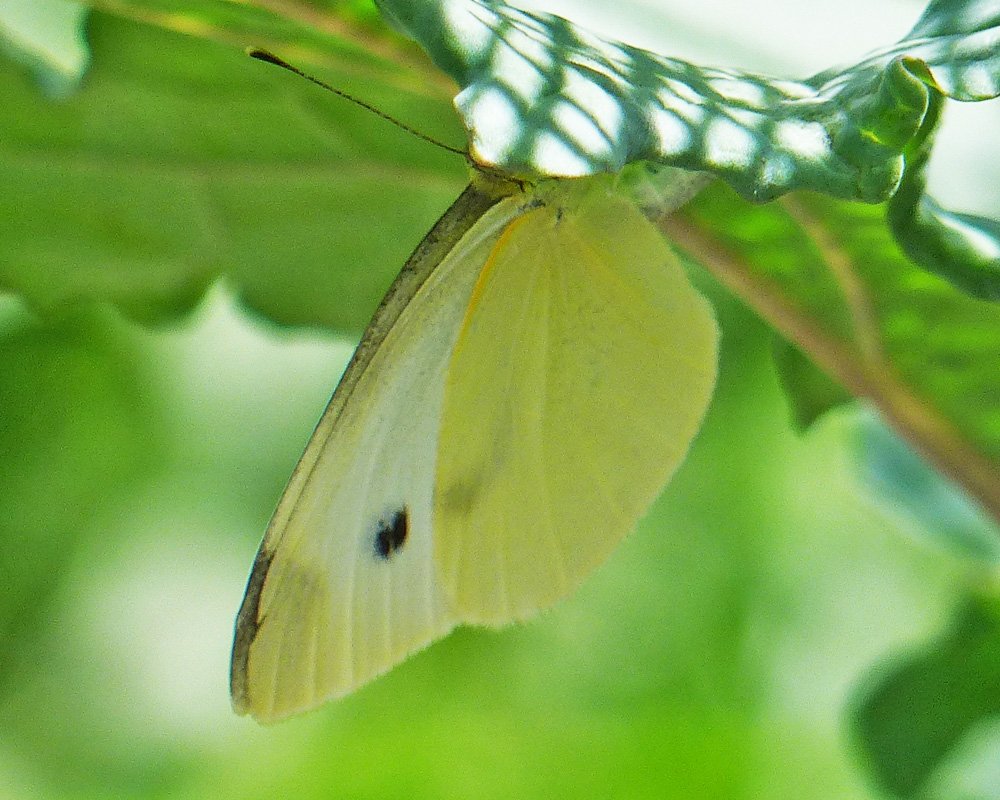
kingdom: Animalia
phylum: Arthropoda
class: Insecta
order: Lepidoptera
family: Pieridae
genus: Pieris
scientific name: Pieris rapae
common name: Cabbage White
